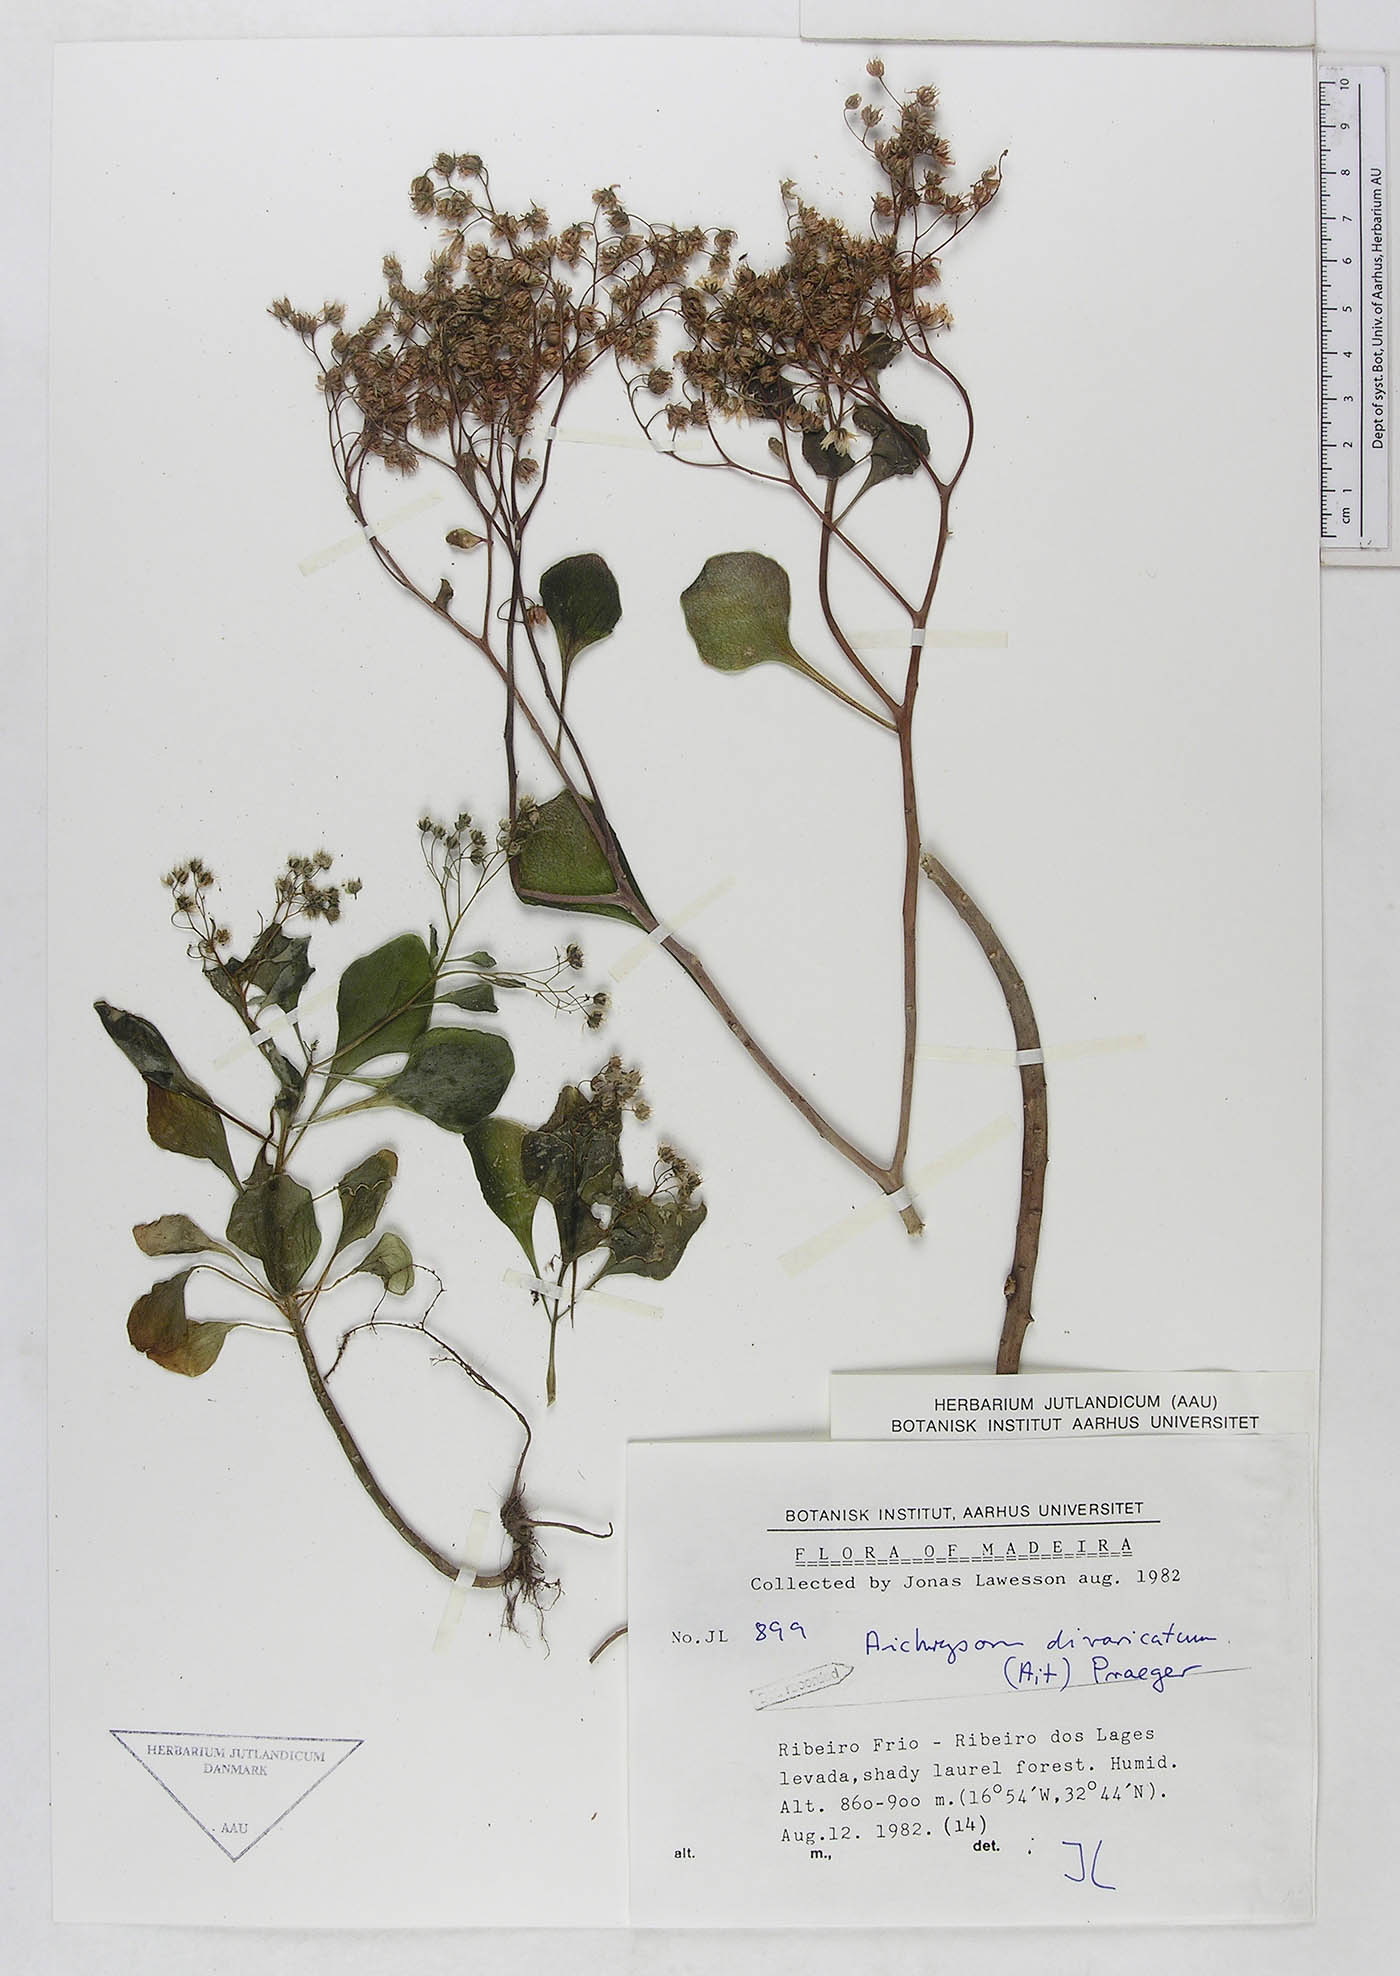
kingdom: Plantae
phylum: Tracheophyta
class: Magnoliopsida
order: Saxifragales
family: Crassulaceae
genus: Aichryson
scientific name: Aichryson divaricatum
